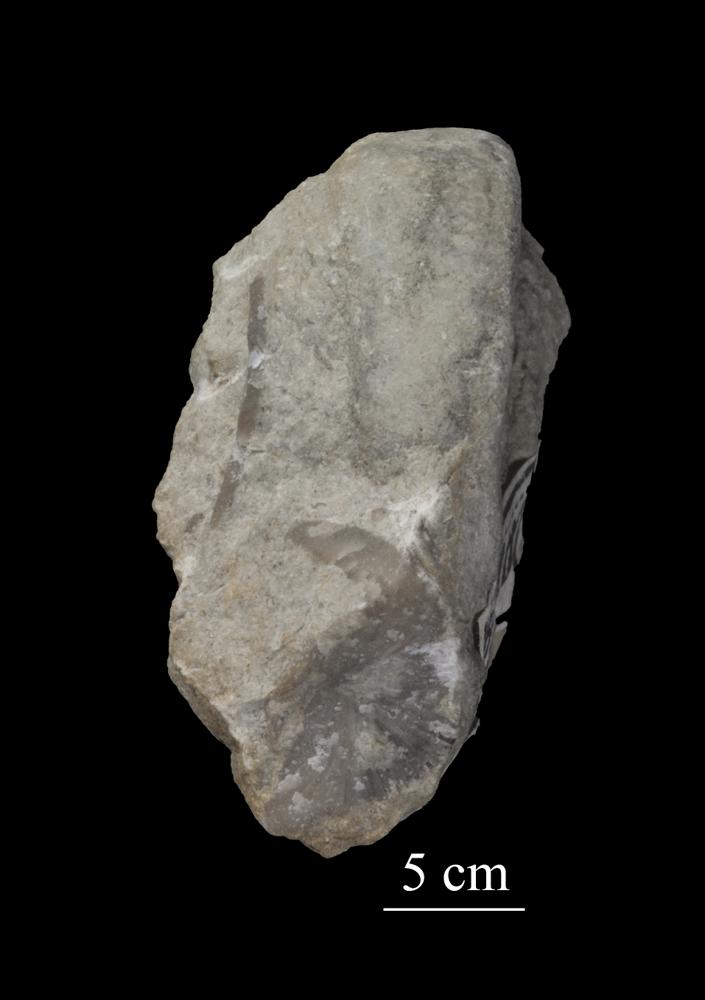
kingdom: Animalia
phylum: Mollusca
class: Gastropoda
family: Lesueurillidae
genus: Pararaphistoma
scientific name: Pararaphistoma Raphistoma scalare
